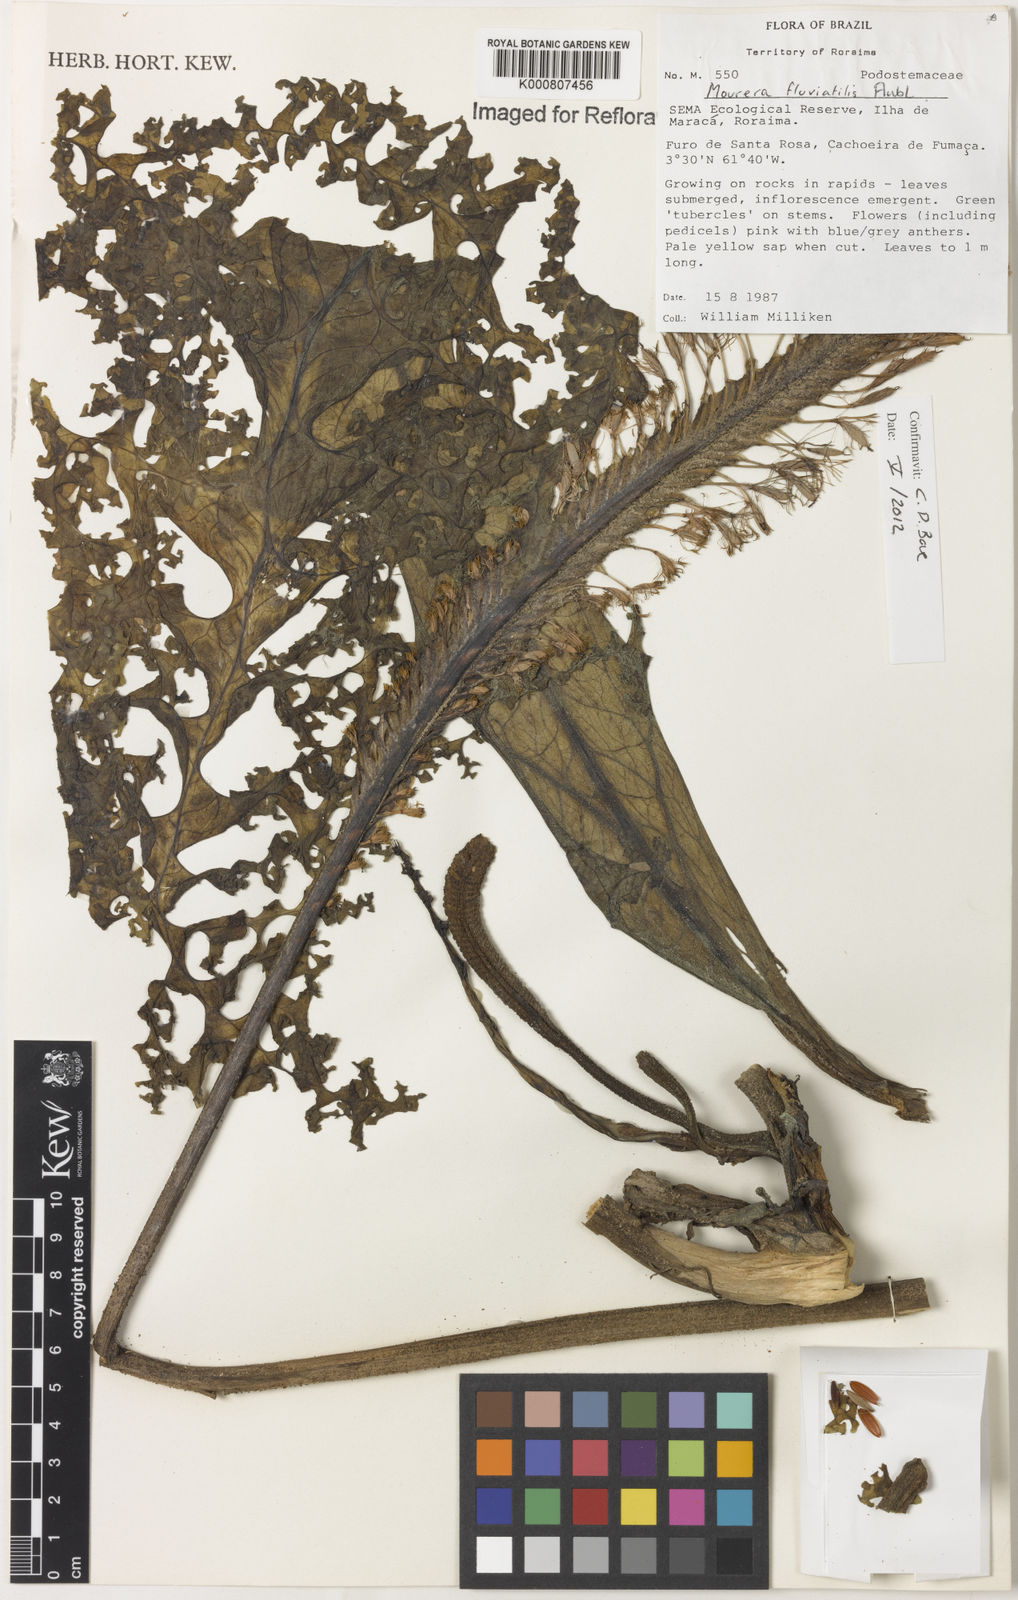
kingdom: Plantae
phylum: Tracheophyta
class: Magnoliopsida
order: Malpighiales
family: Podostemaceae
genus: Mourera
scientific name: Mourera fluviatilis
